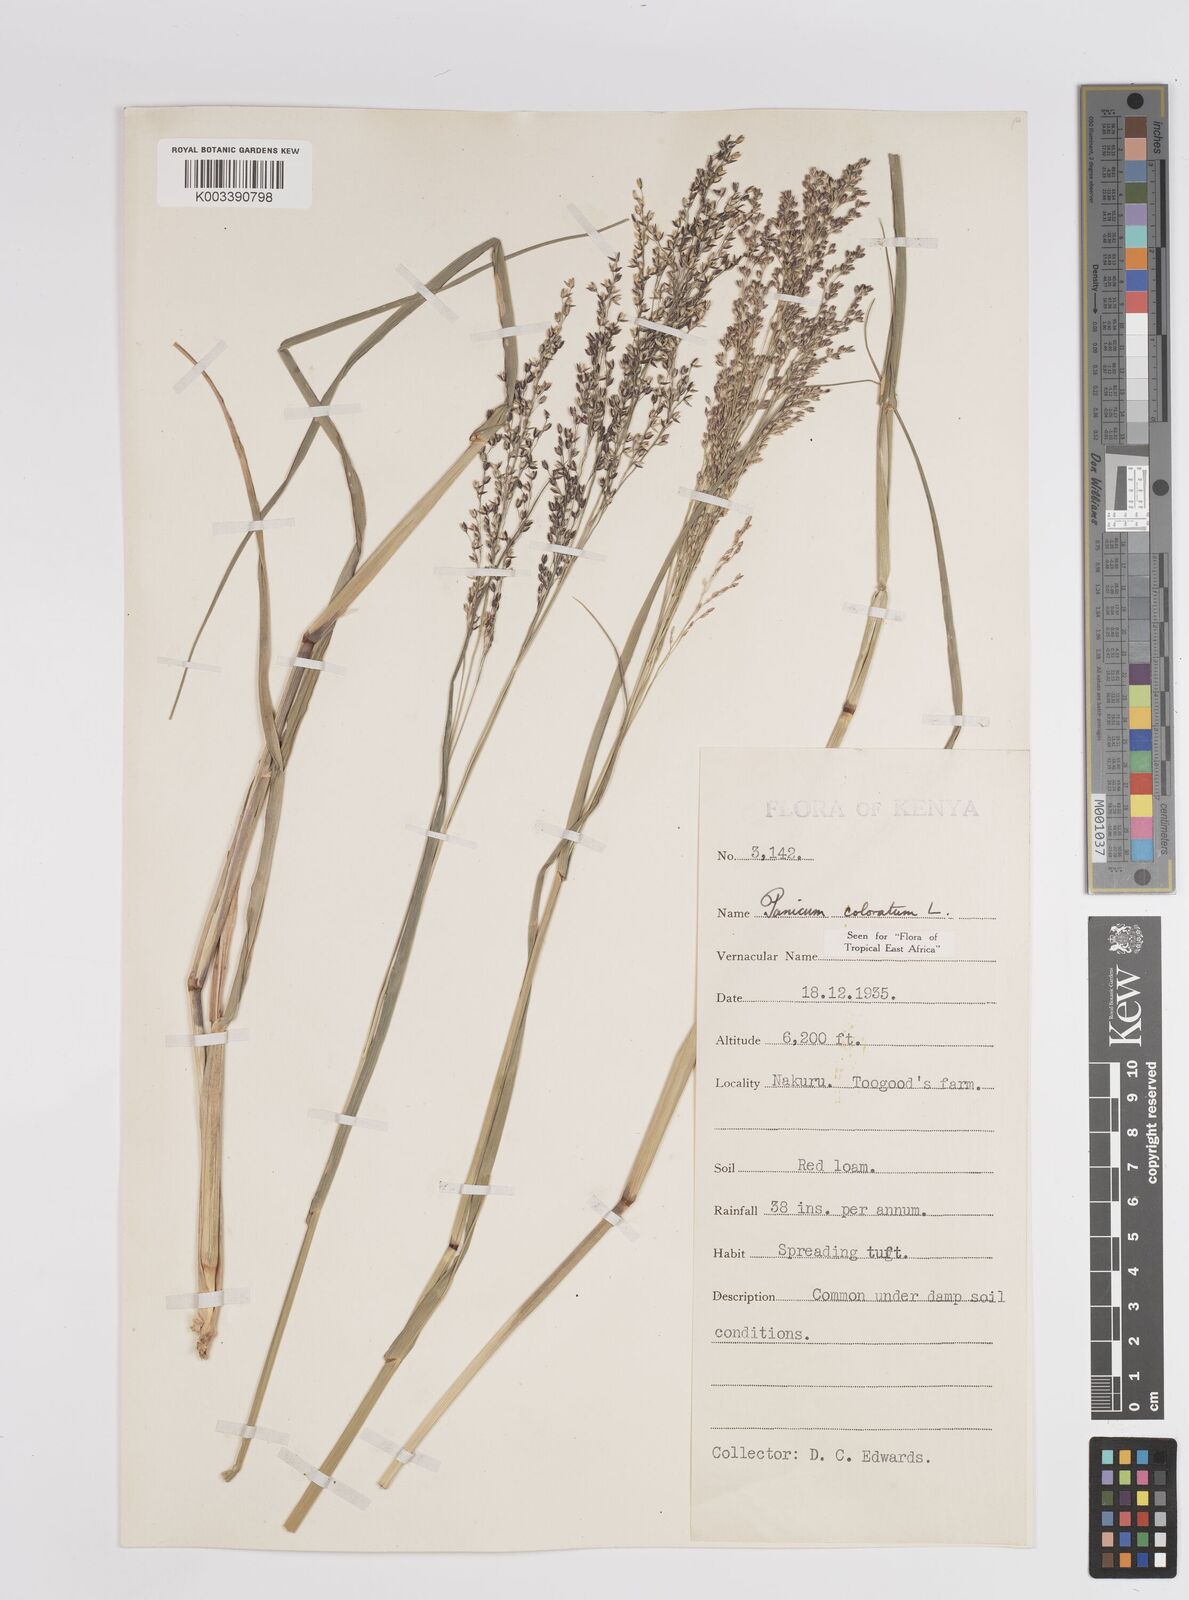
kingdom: Plantae
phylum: Tracheophyta
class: Liliopsida
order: Poales
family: Poaceae
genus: Panicum
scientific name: Panicum coloratum
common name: Kleingrass
